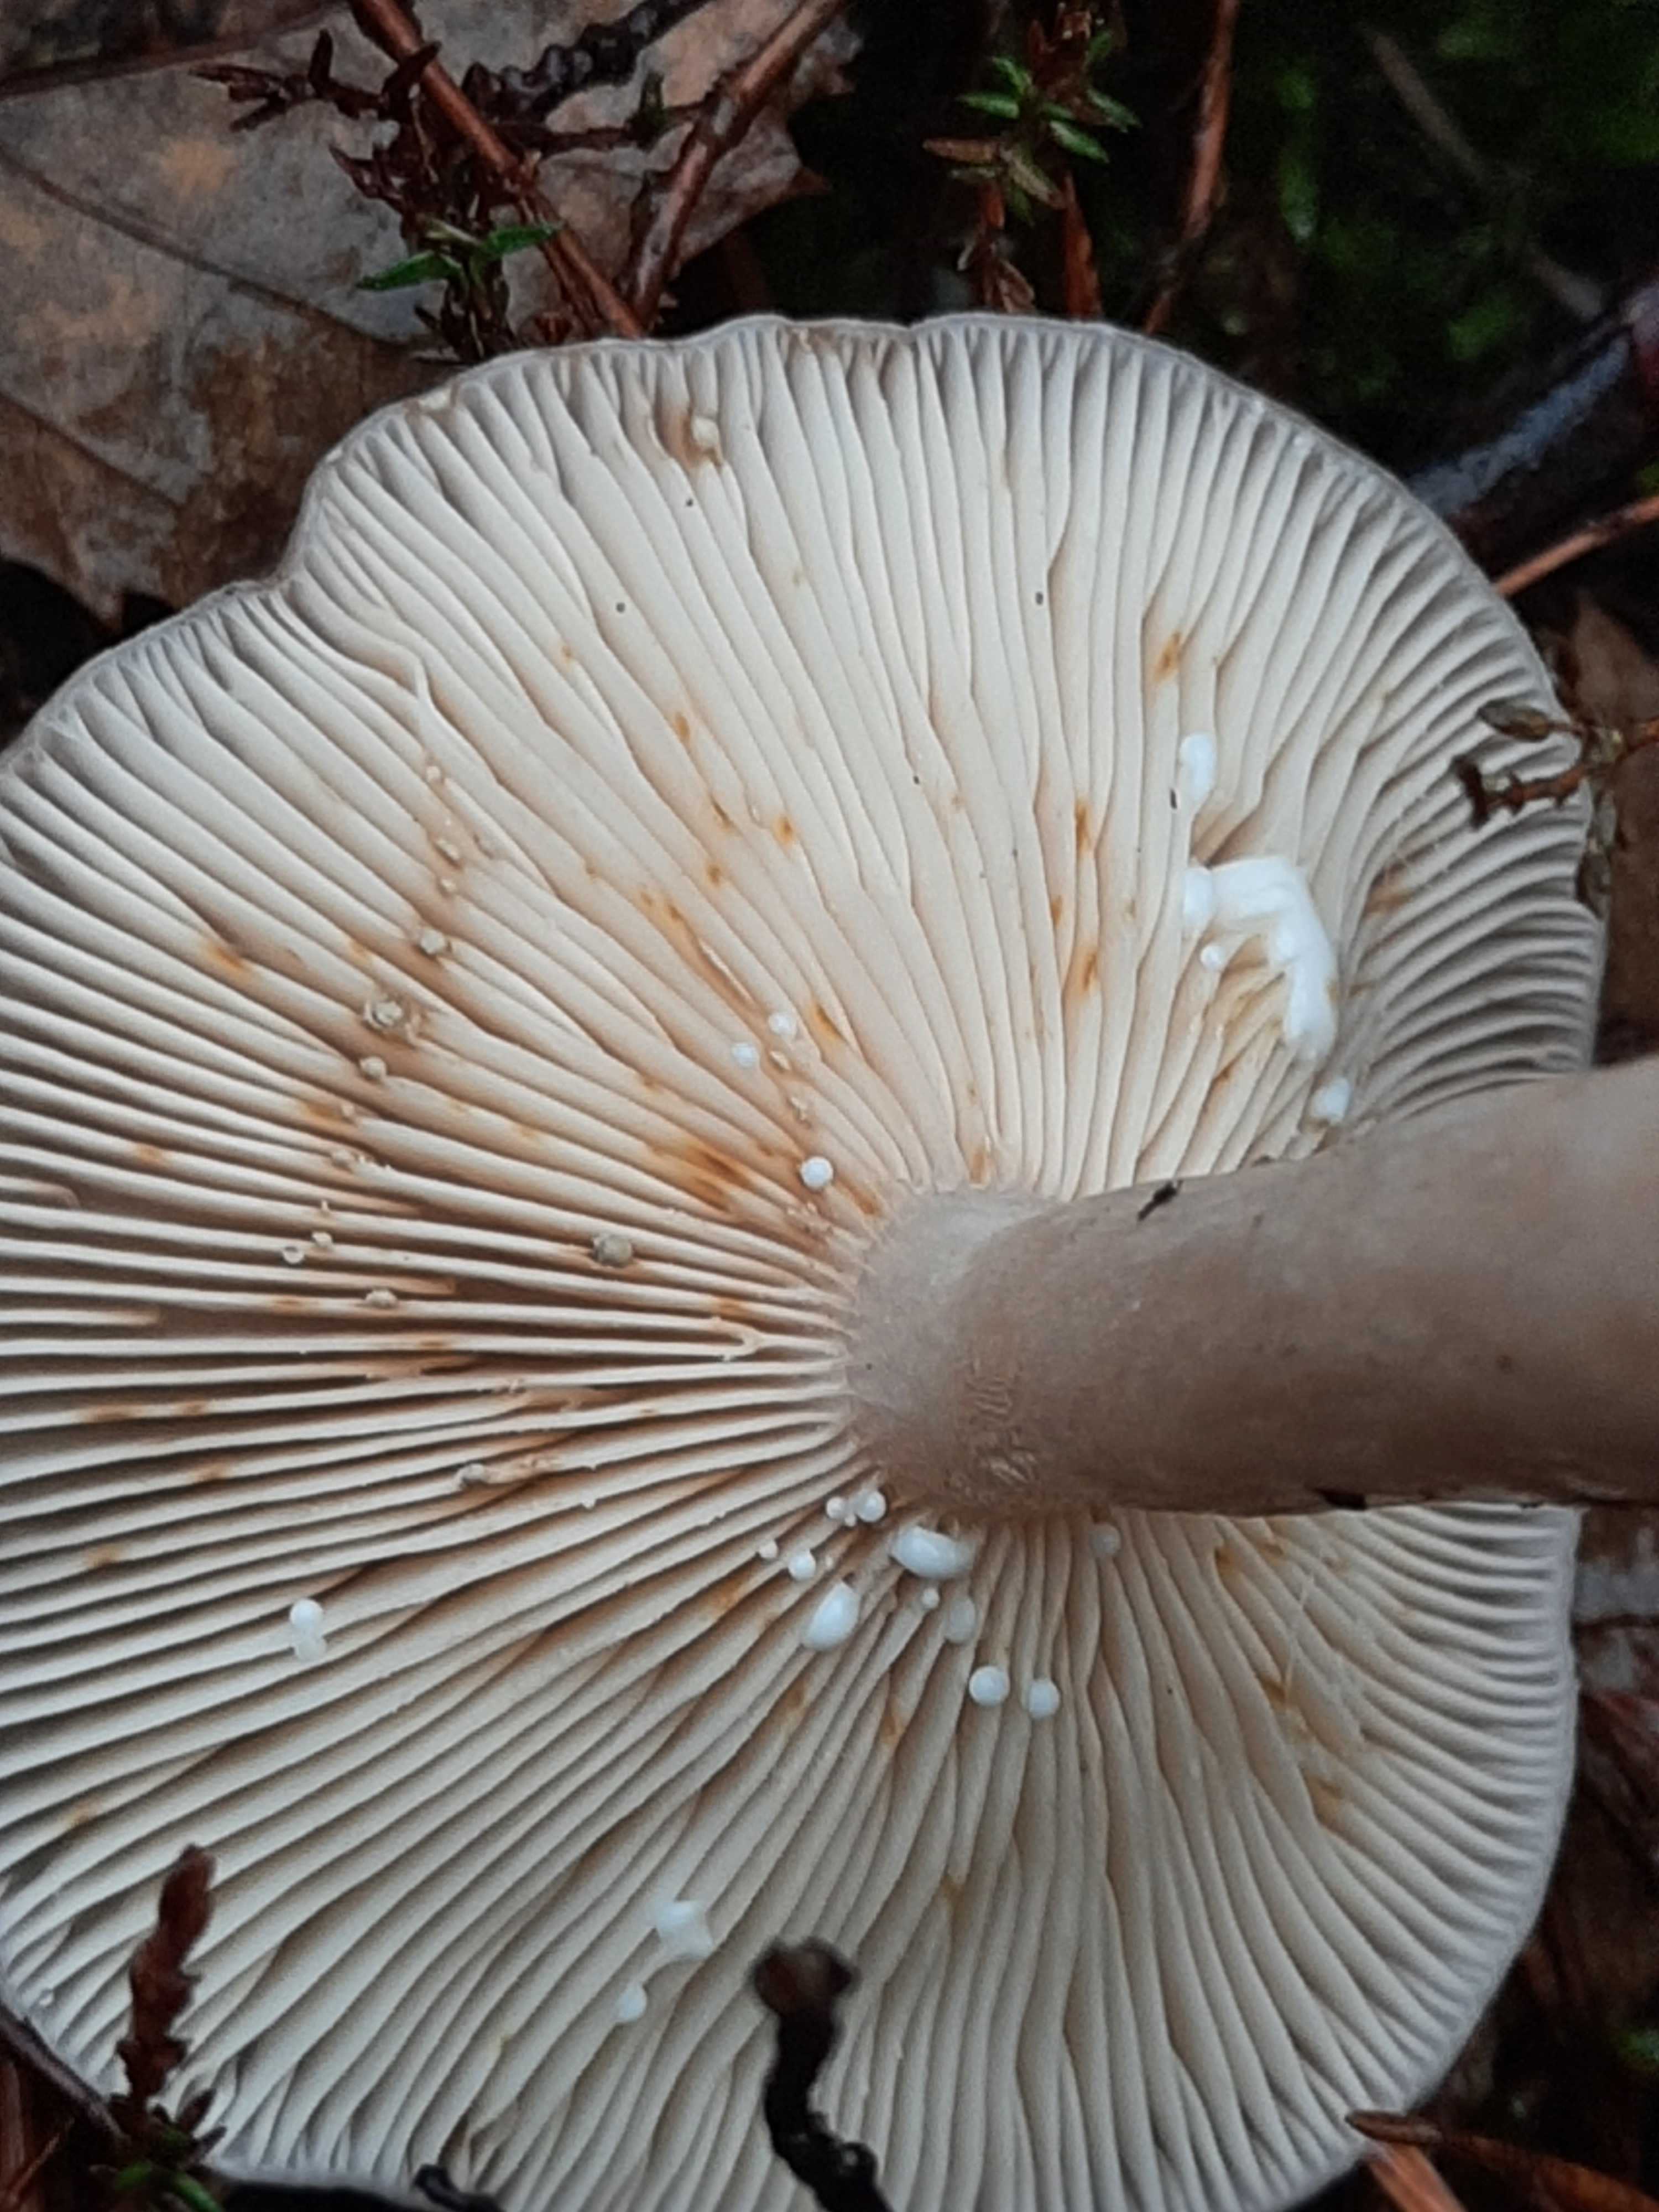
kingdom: Fungi
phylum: Basidiomycota
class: Agaricomycetes
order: Russulales
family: Russulaceae
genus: Lactarius
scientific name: Lactarius vietus
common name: violetgrå mælkehat
